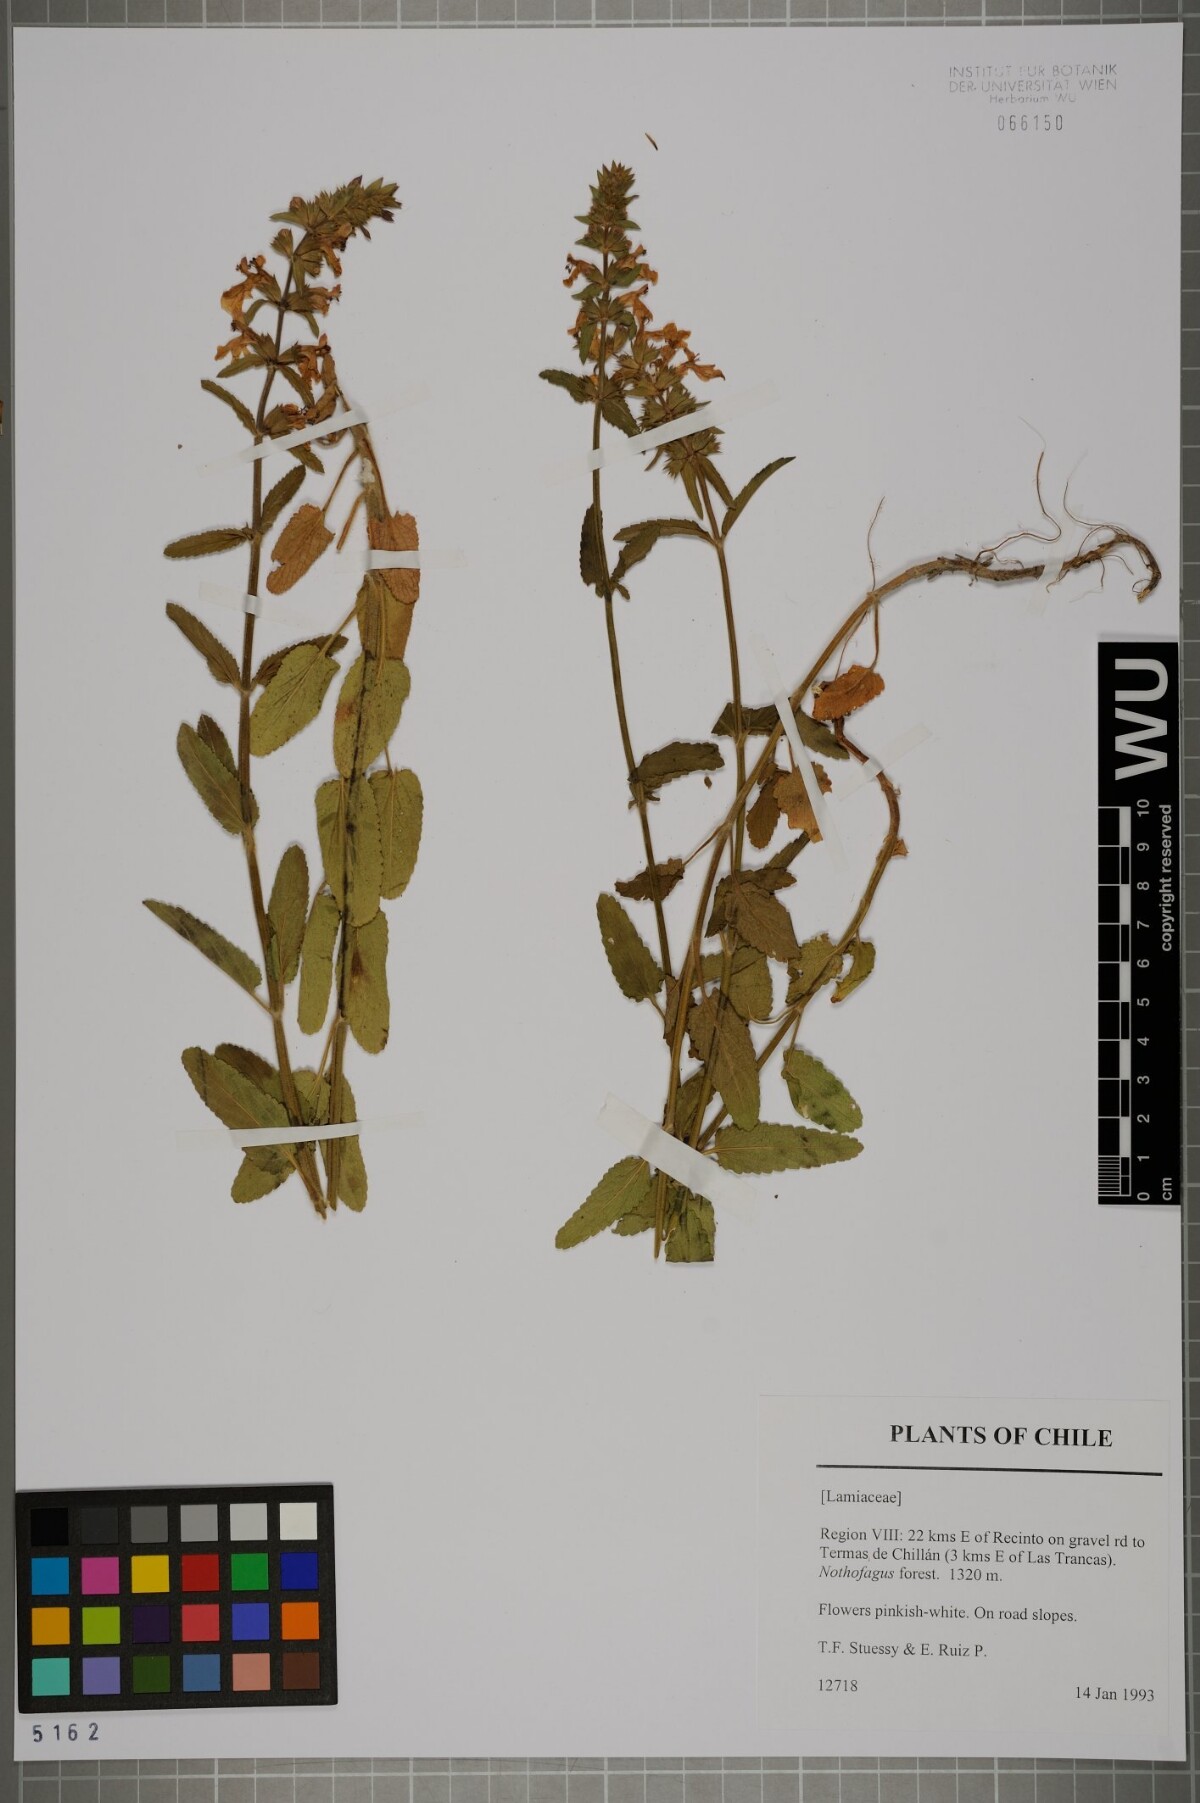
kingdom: Plantae
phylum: Tracheophyta
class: Magnoliopsida
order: Lamiales
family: Lamiaceae
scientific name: Lamiaceae
